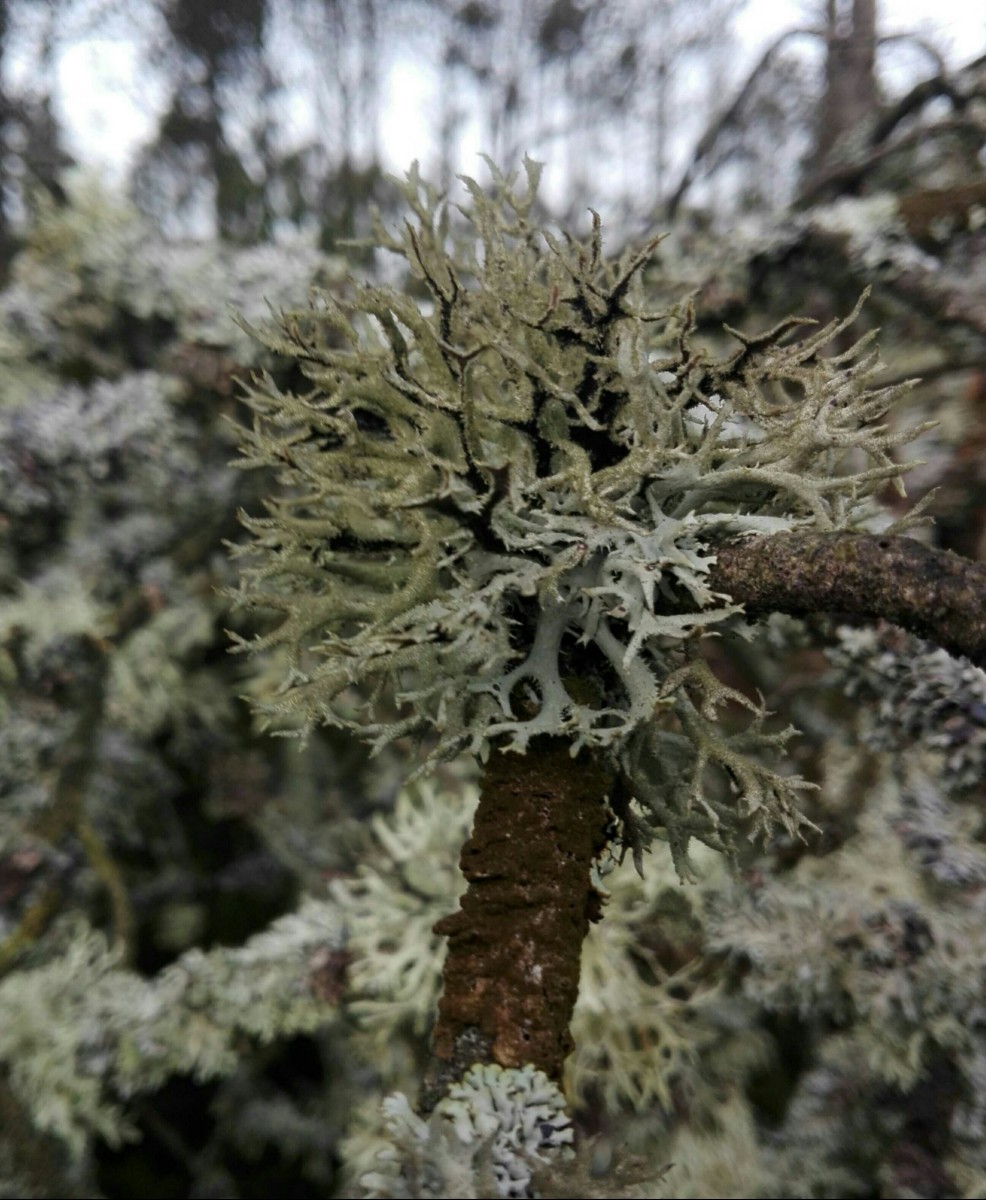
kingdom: Fungi
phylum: Ascomycota
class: Lecanoromycetes
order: Lecanorales
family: Parmeliaceae
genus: Pseudevernia
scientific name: Pseudevernia furfuracea
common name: grå fyrrelav
